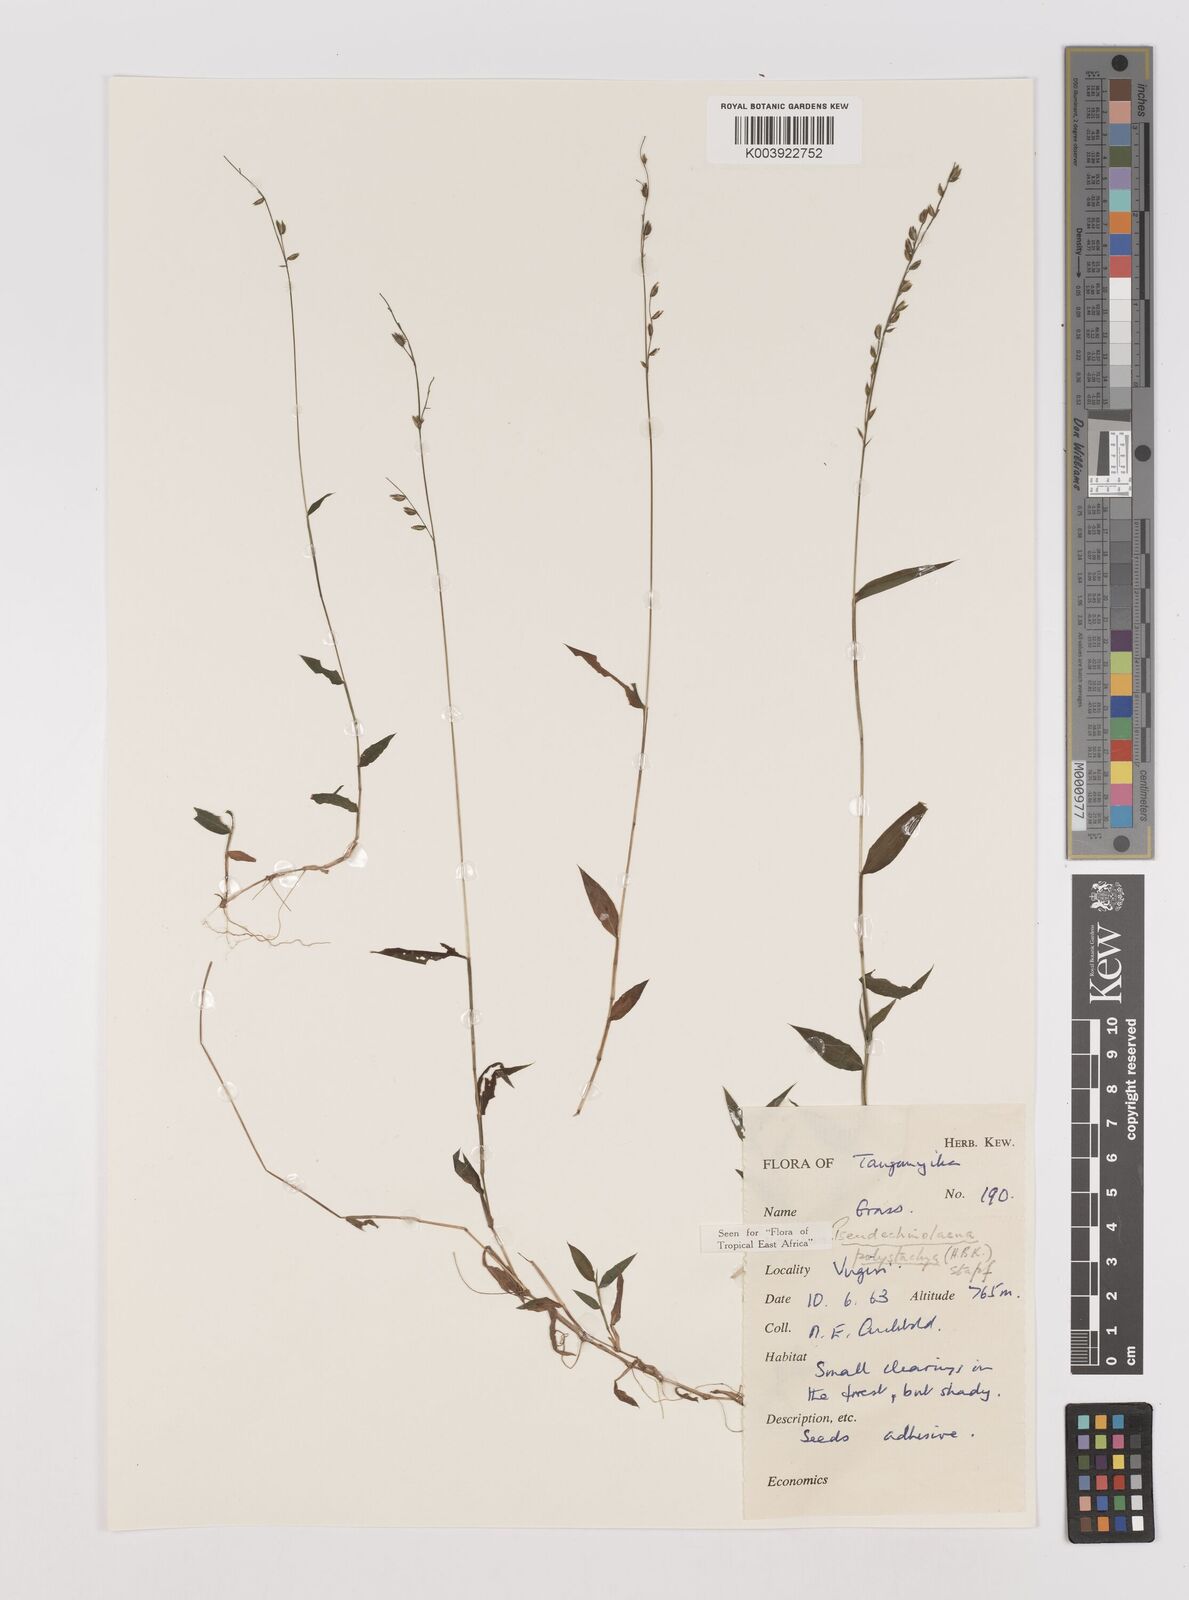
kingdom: Plantae
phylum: Tracheophyta
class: Liliopsida
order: Poales
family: Poaceae
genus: Pseudechinolaena
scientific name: Pseudechinolaena polystachya
